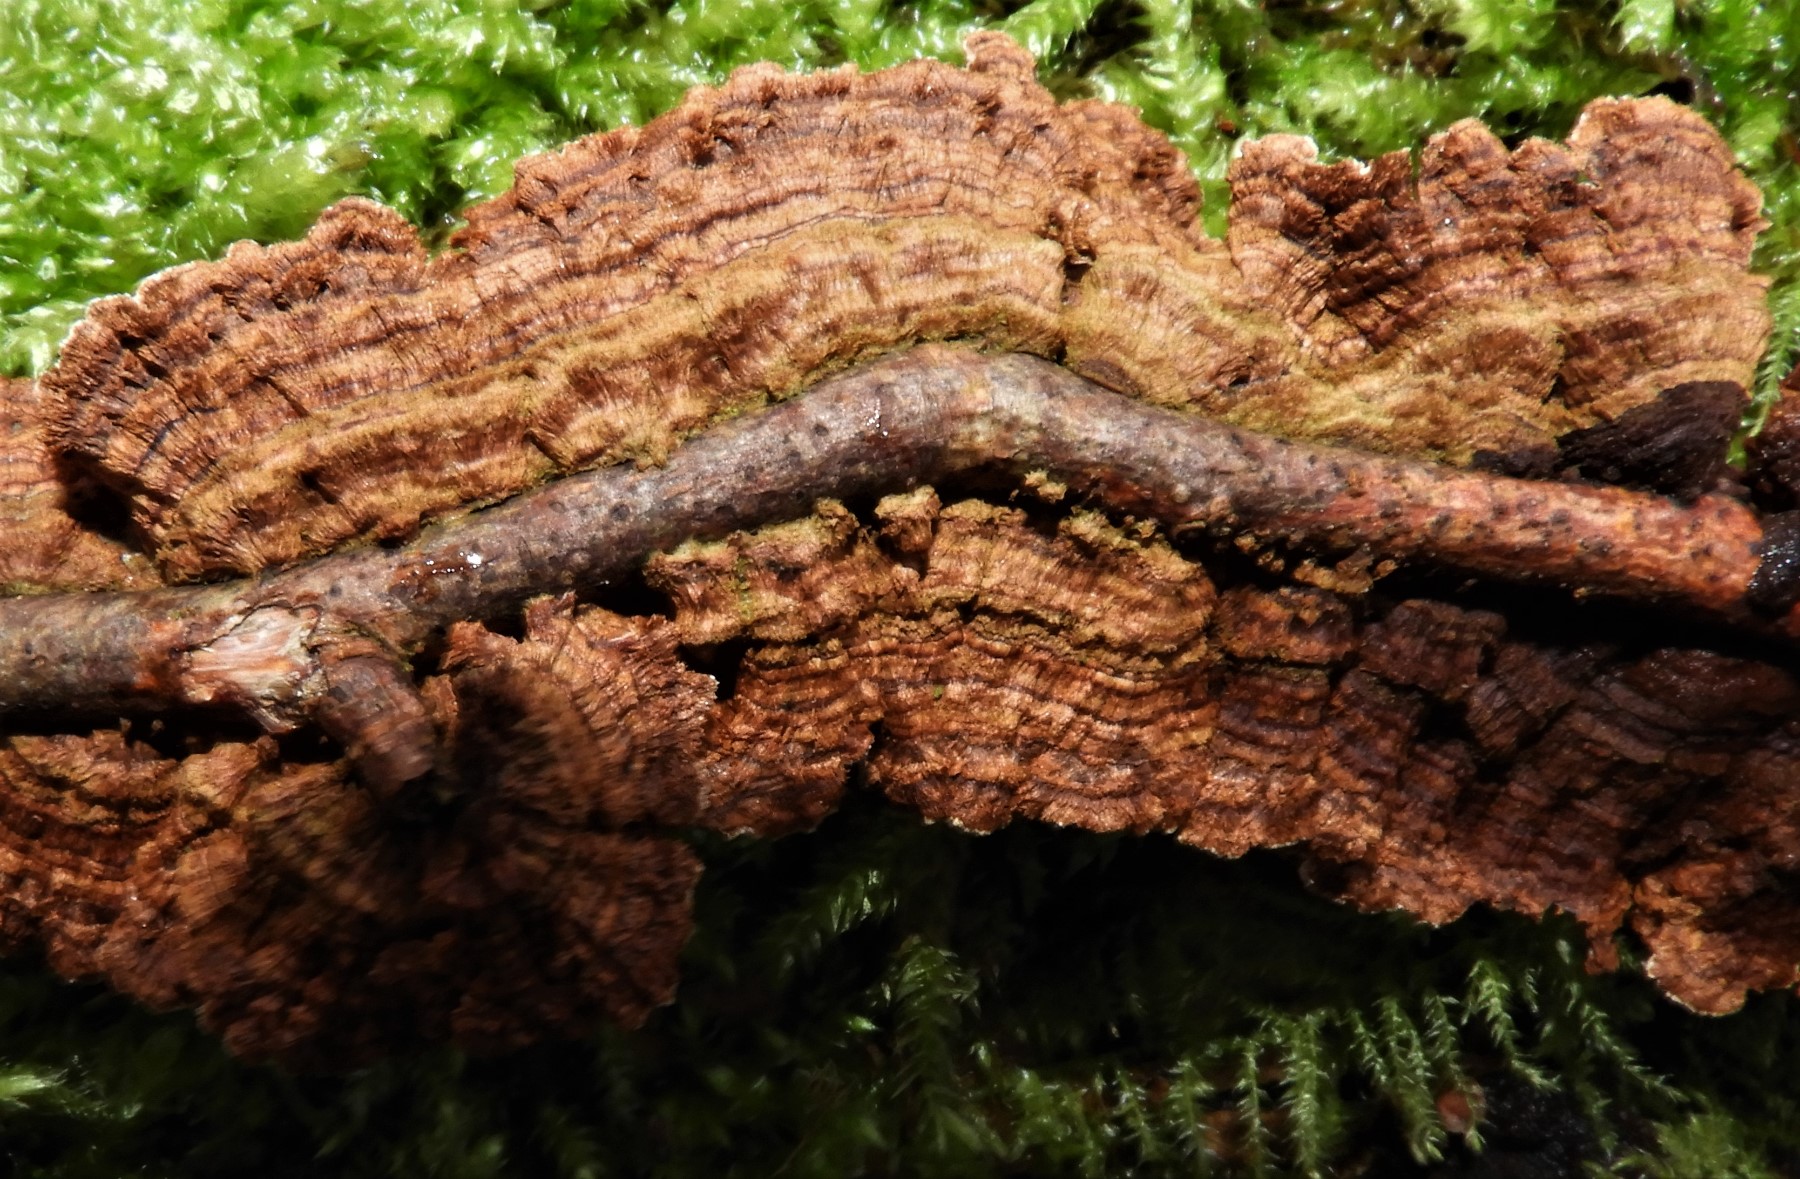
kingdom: Fungi
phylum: Basidiomycota
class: Agaricomycetes
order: Hymenochaetales
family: Hymenochaetaceae
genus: Hydnoporia
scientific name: Hydnoporia tabacina
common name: tobaksbrun ruslædersvamp
